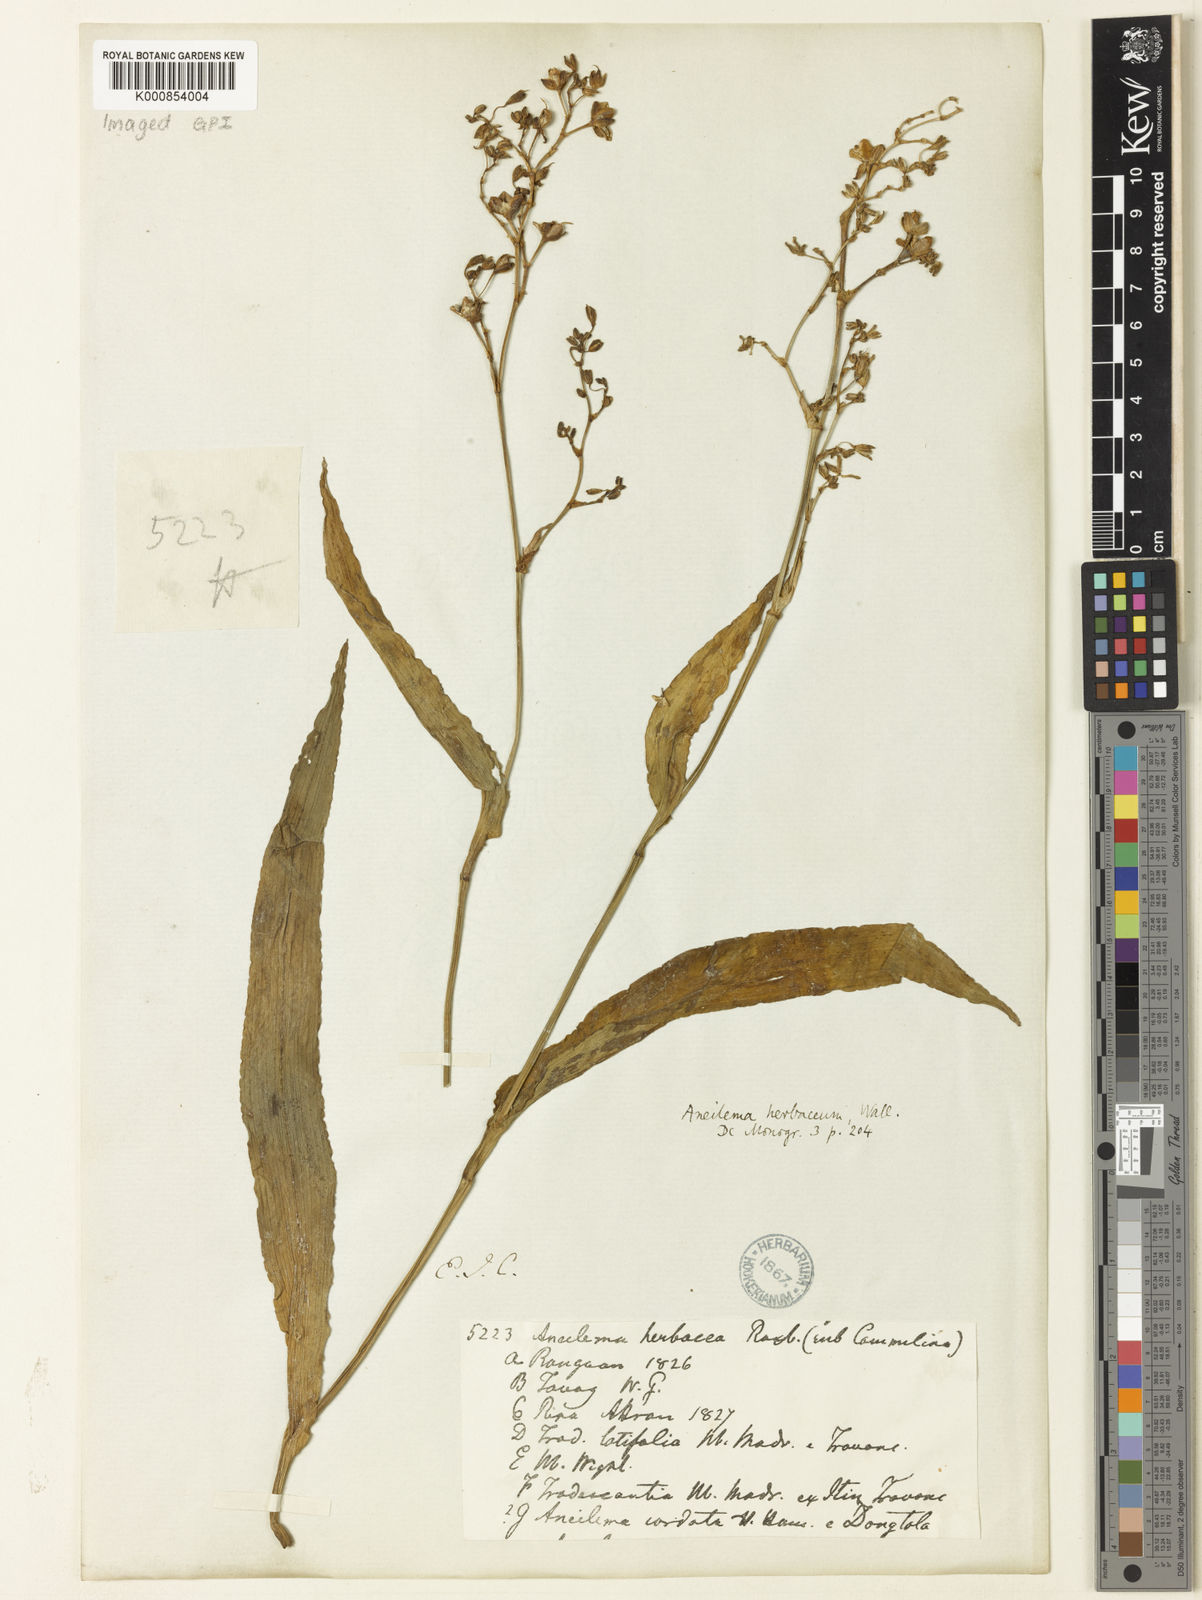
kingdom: Plantae
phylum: Tracheophyta
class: Liliopsida
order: Commelinales
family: Commelinaceae
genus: Murdannia
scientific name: Murdannia
